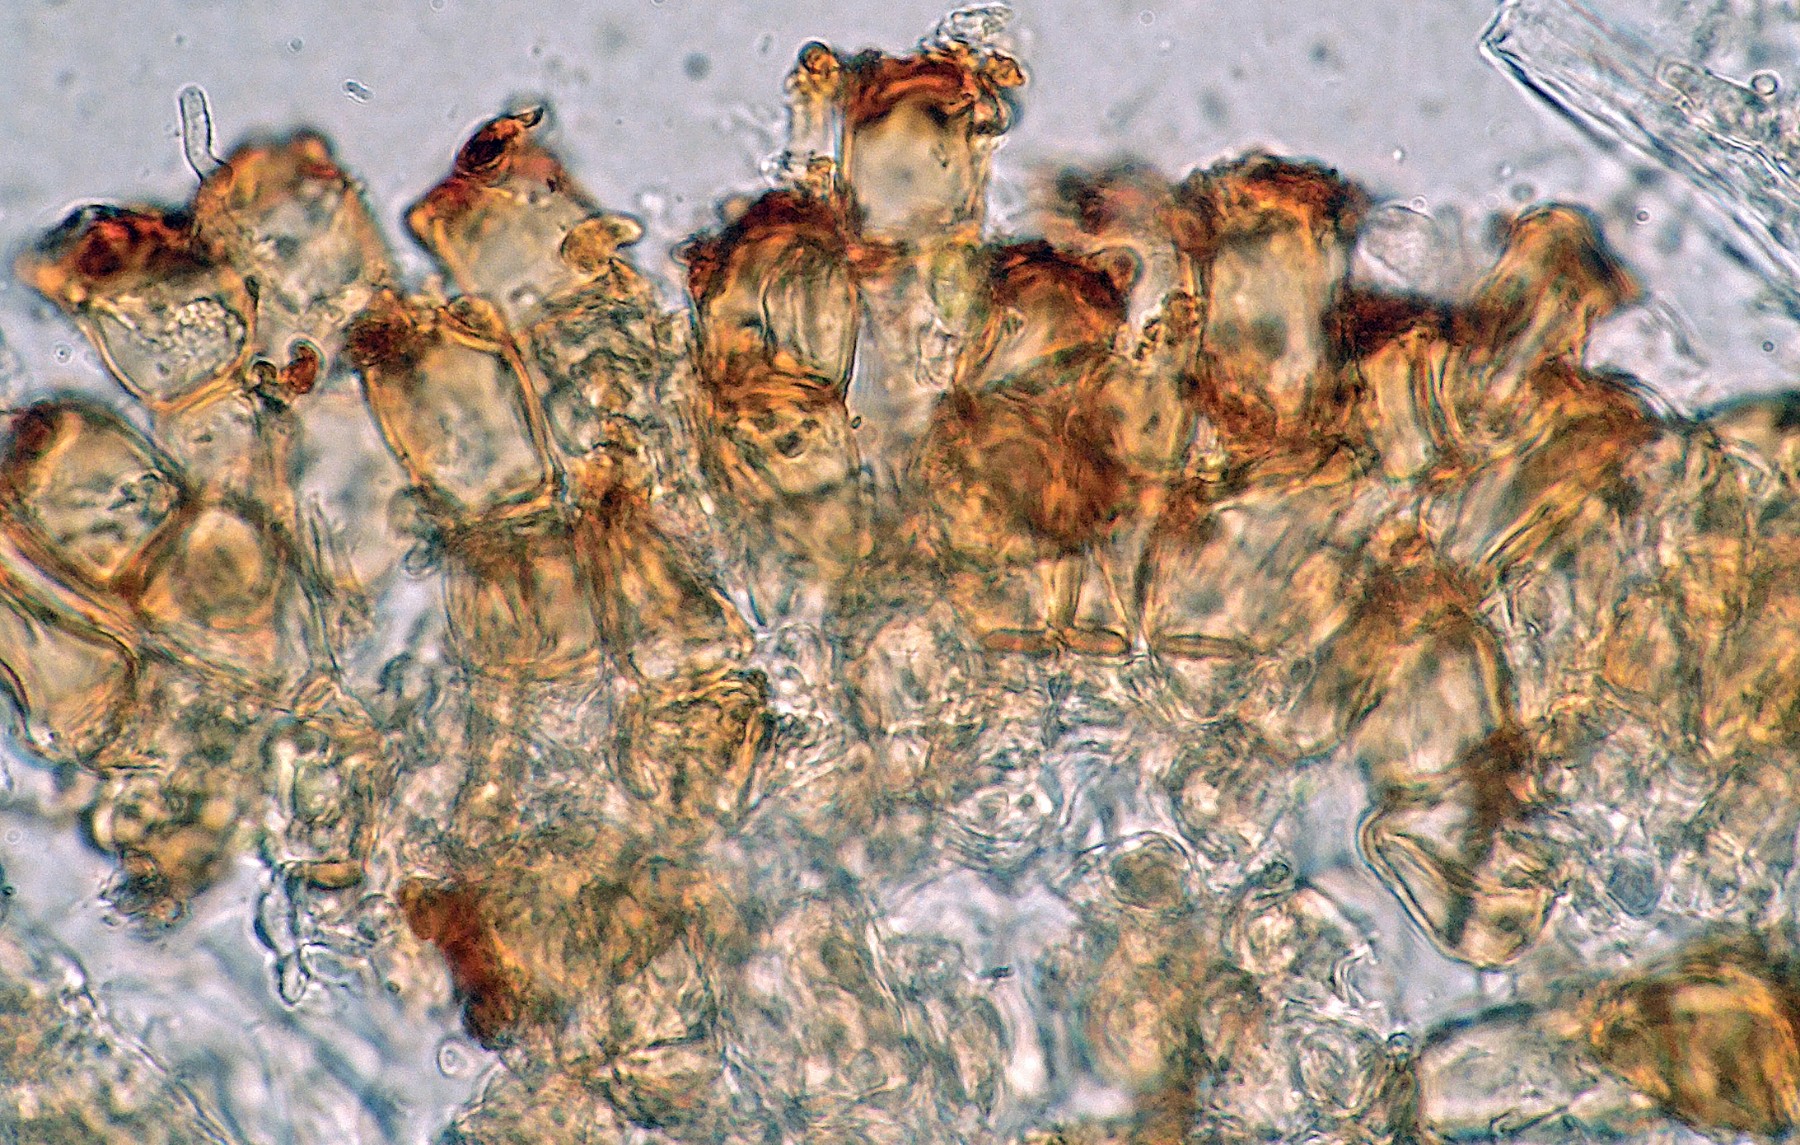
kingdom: Fungi
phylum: Basidiomycota
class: Pucciniomycetes
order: Pucciniales
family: Pucciniaceae
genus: Puccinia
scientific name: Puccinia coronata
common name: Crown rust
